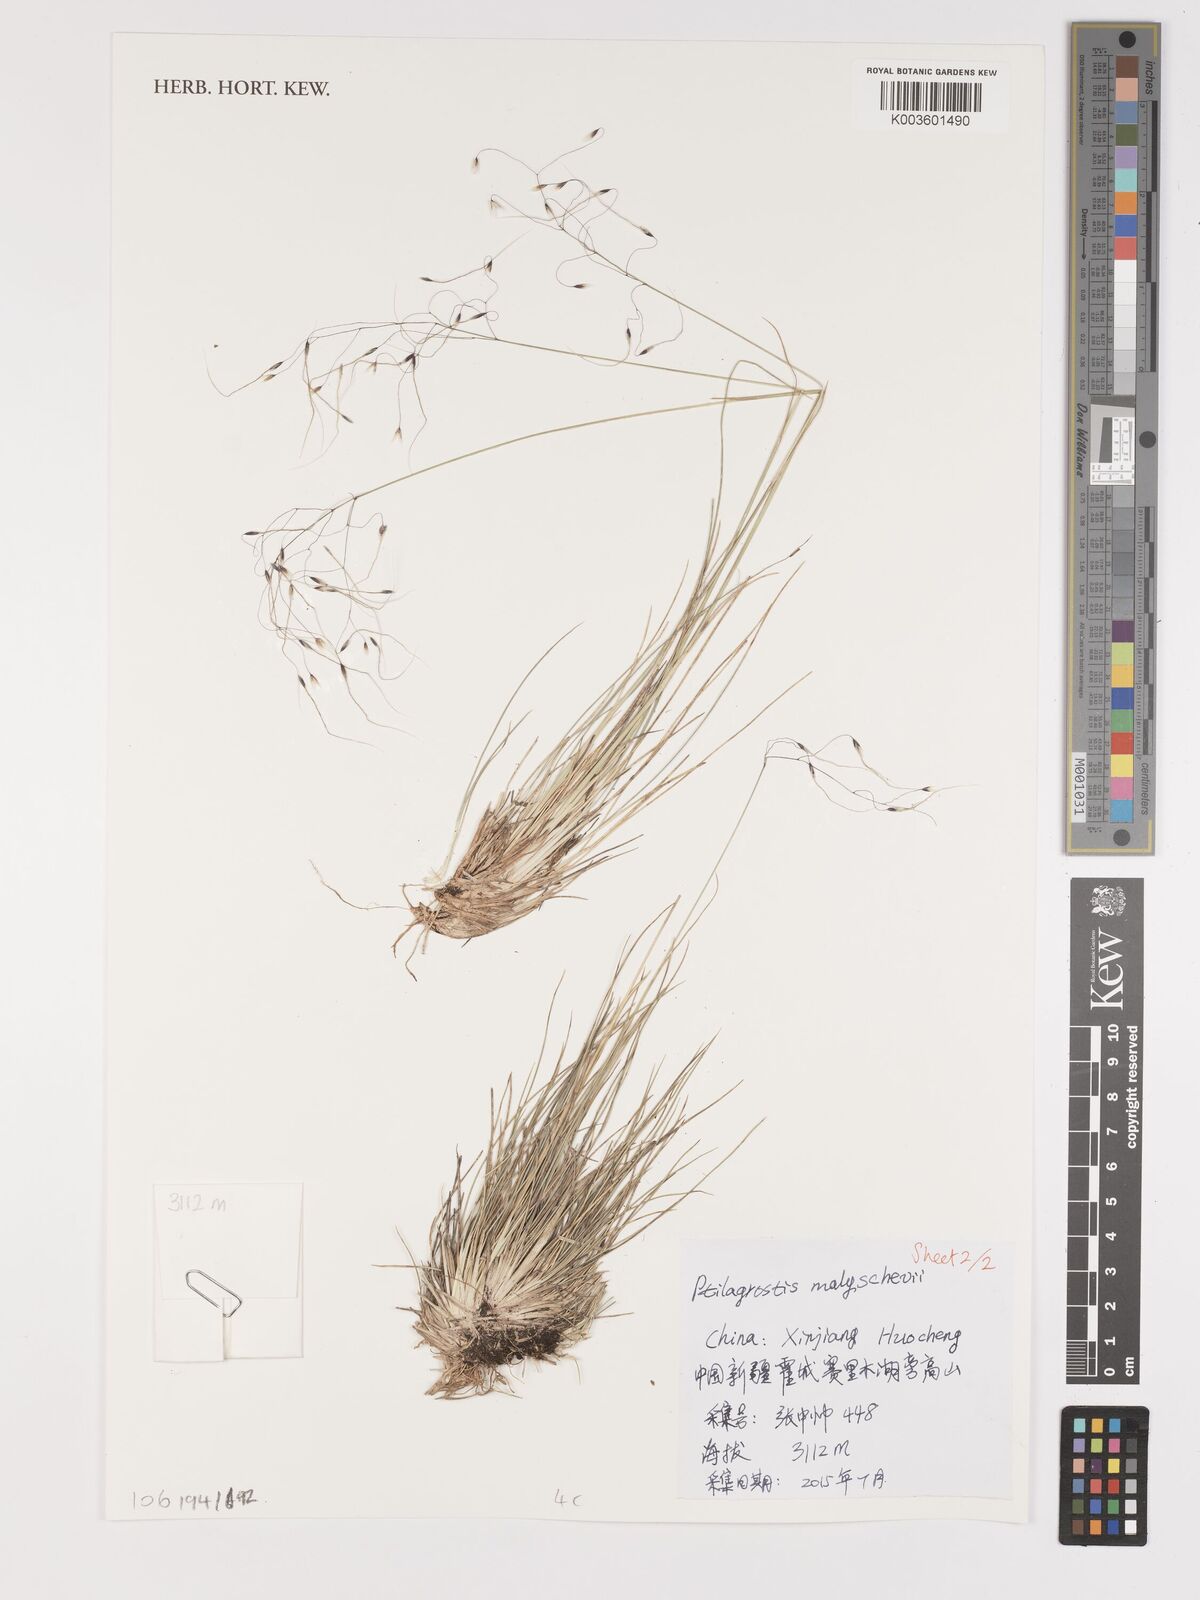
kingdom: Plantae
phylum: Tracheophyta
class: Liliopsida
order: Poales
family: Poaceae
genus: Stipa
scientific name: Stipa
